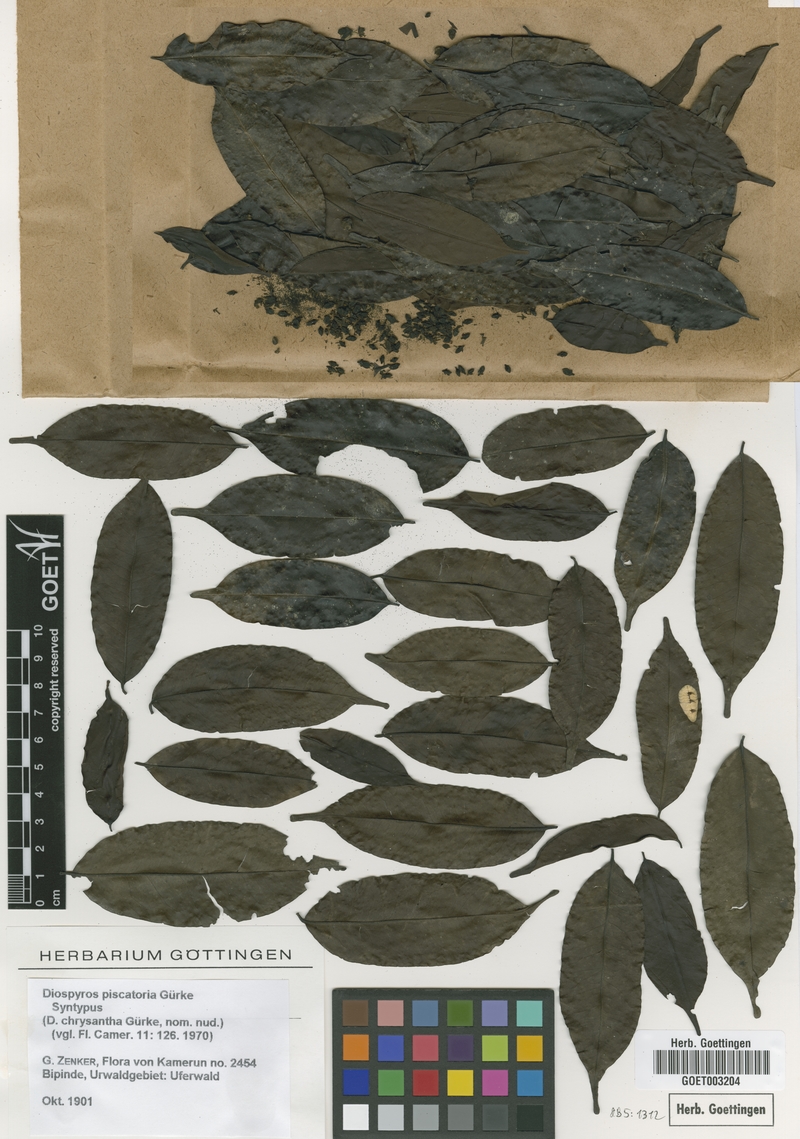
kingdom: Plantae
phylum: Tracheophyta
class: Magnoliopsida
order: Ericales
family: Ebenaceae
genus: Diospyros
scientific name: Diospyros piscatoria
